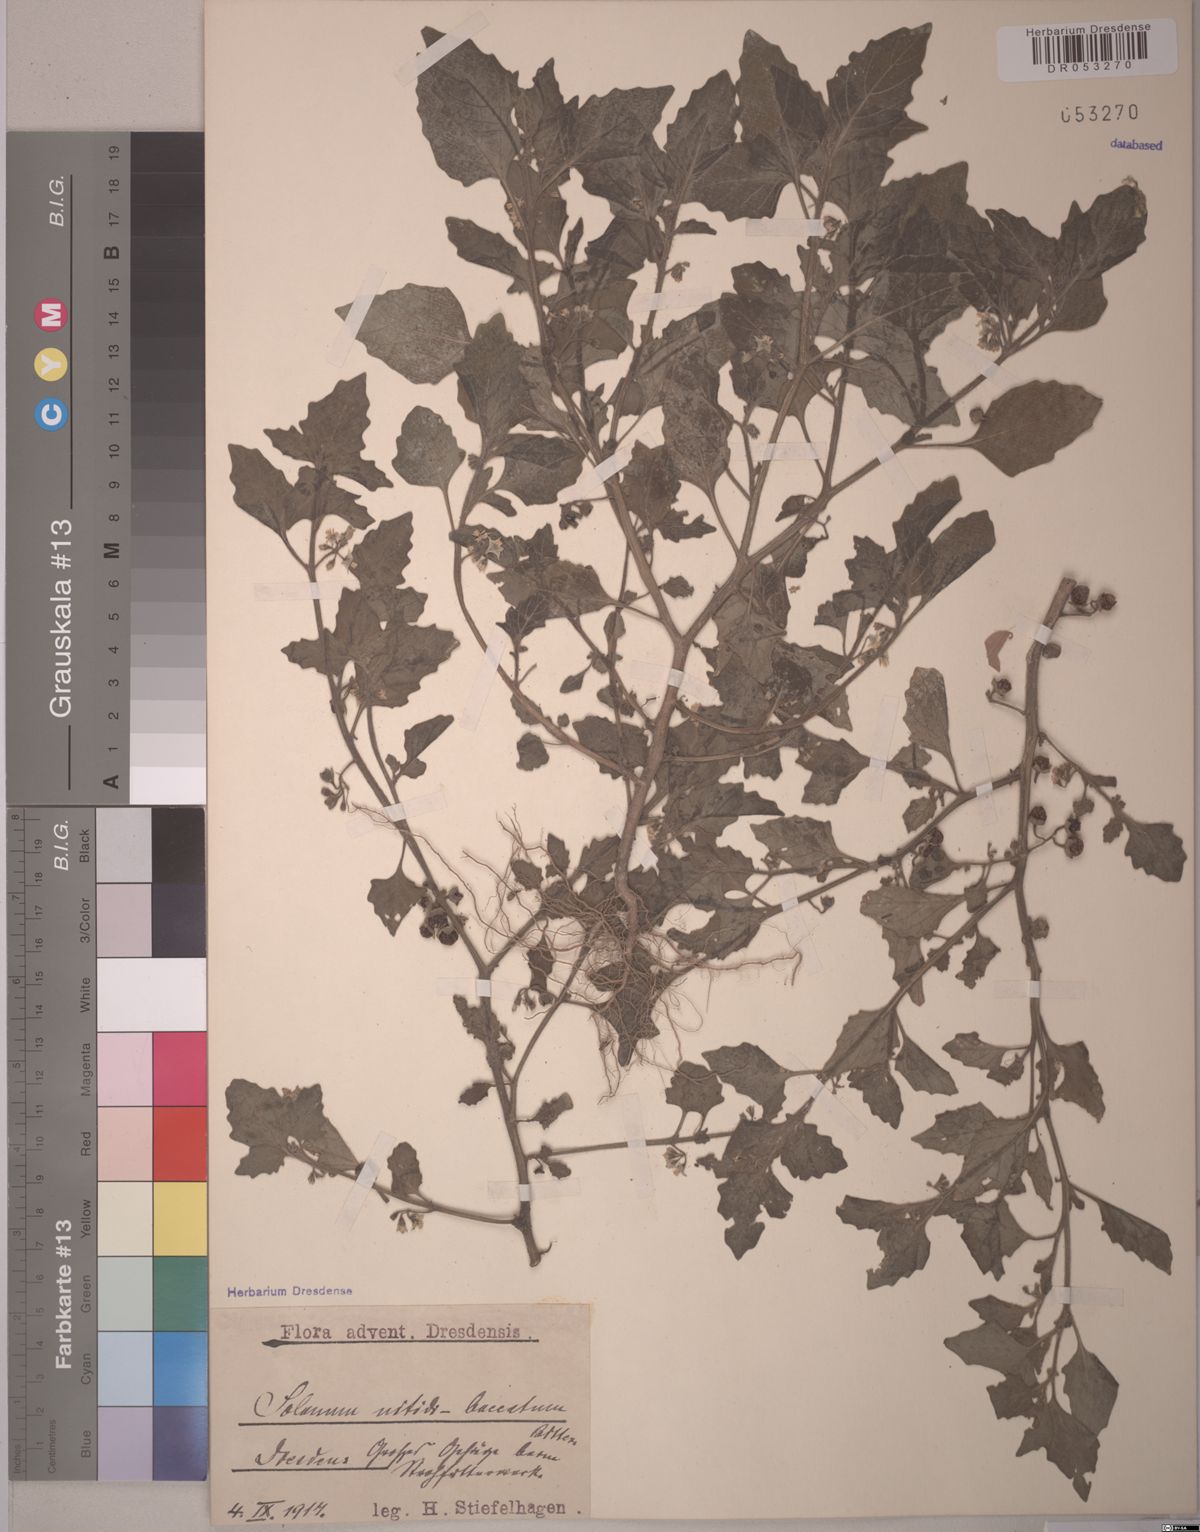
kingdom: Plantae
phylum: Tracheophyta
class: Magnoliopsida
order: Solanales
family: Solanaceae
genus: Solanum
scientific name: Solanum nitidibaccatum
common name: Hairy nightshade
